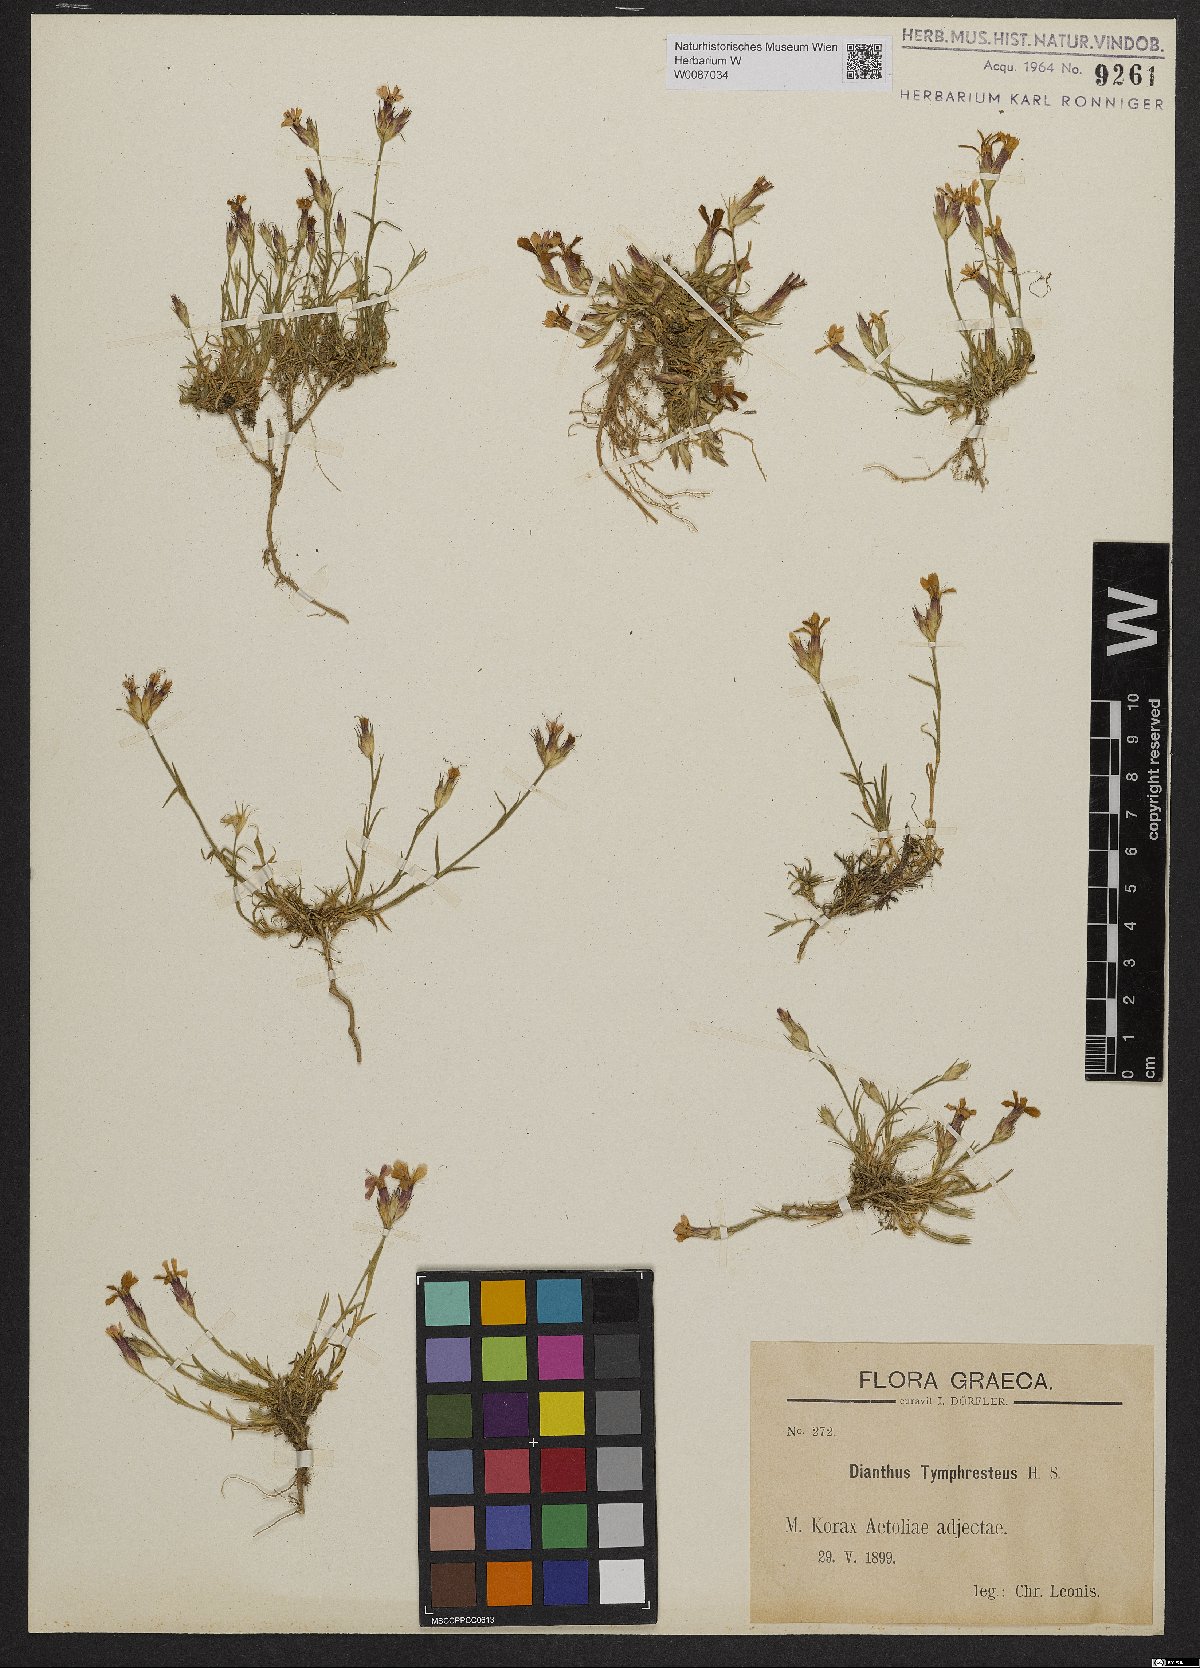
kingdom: Plantae
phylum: Tracheophyta
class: Magnoliopsida
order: Caryophyllales
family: Caryophyllaceae
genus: Dianthus
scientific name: Dianthus tymphresteus
